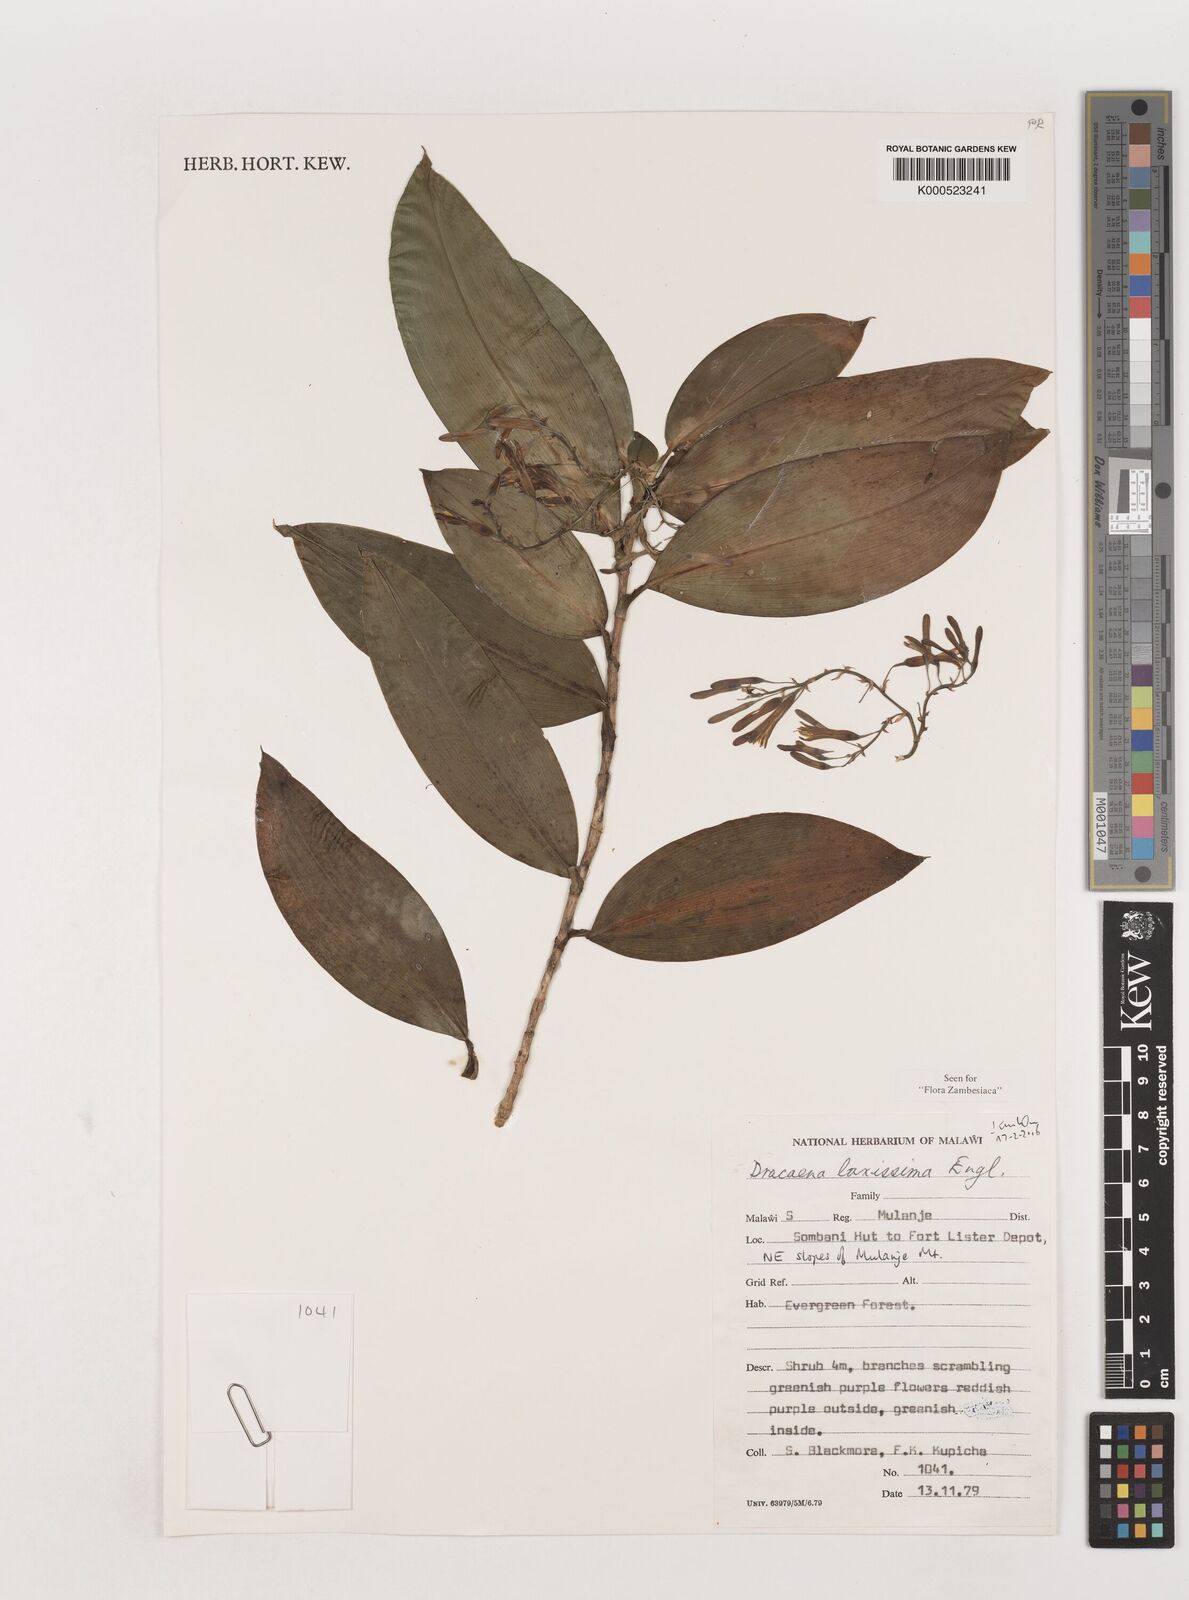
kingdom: Plantae
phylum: Tracheophyta
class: Liliopsida
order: Asparagales
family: Asparagaceae
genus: Dracaena
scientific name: Dracaena laxissima
